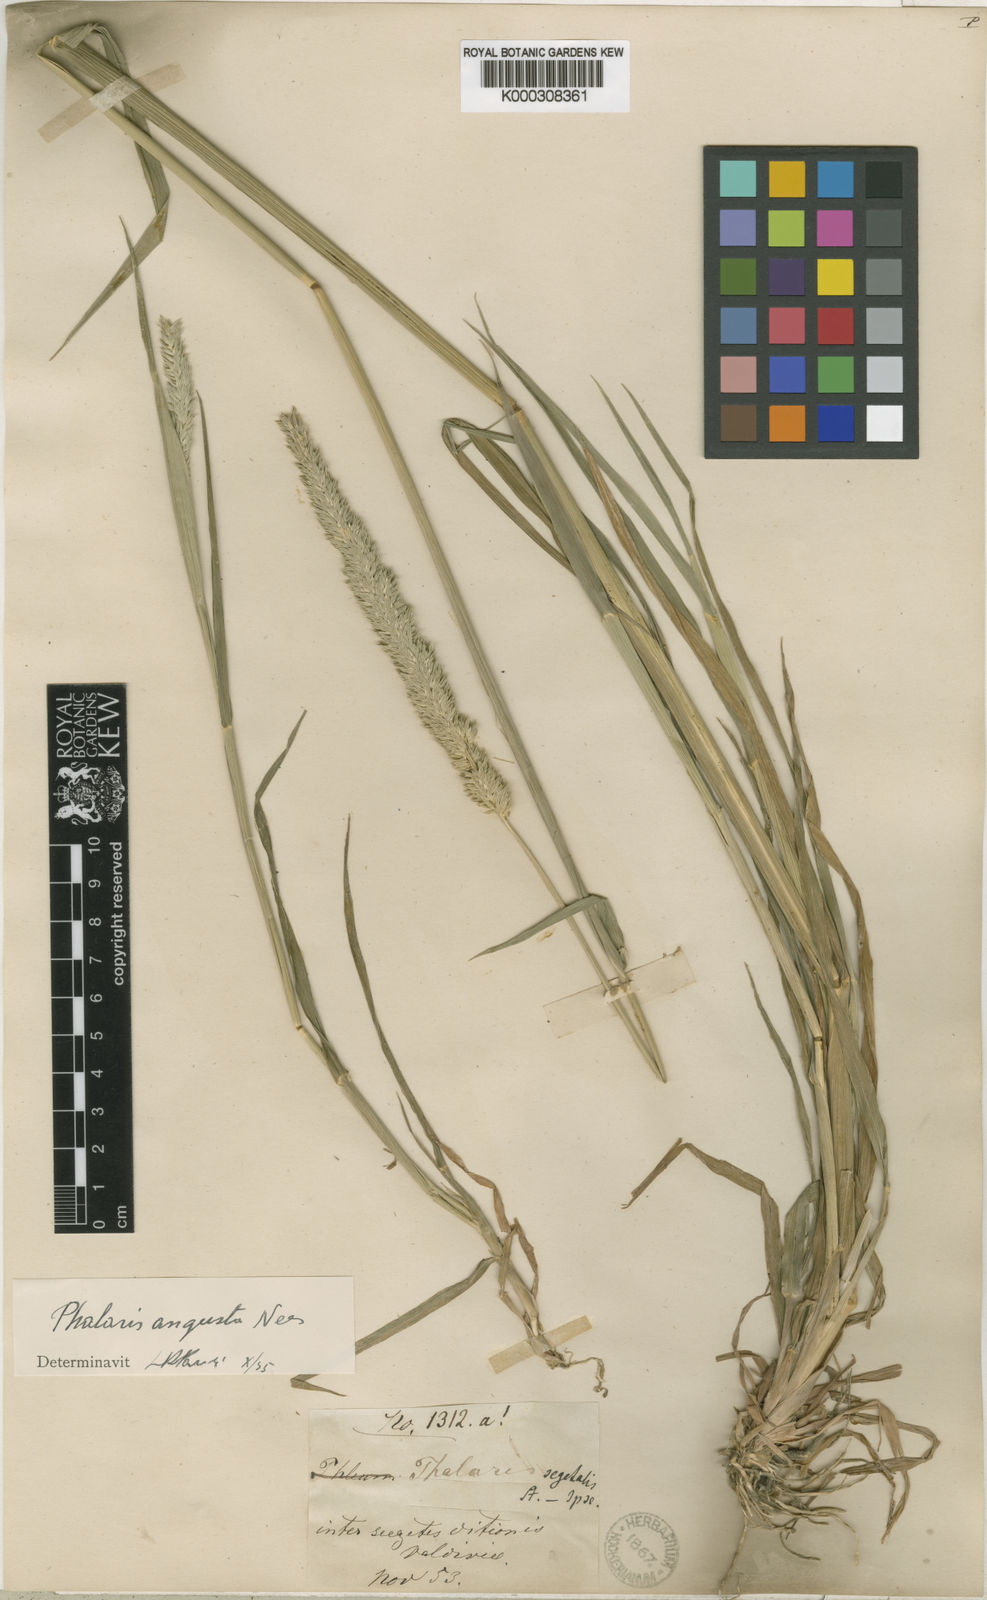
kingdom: Plantae
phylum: Tracheophyta
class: Liliopsida
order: Poales
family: Poaceae
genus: Phalaris
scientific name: Phalaris angusta
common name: Narrow canary grass
